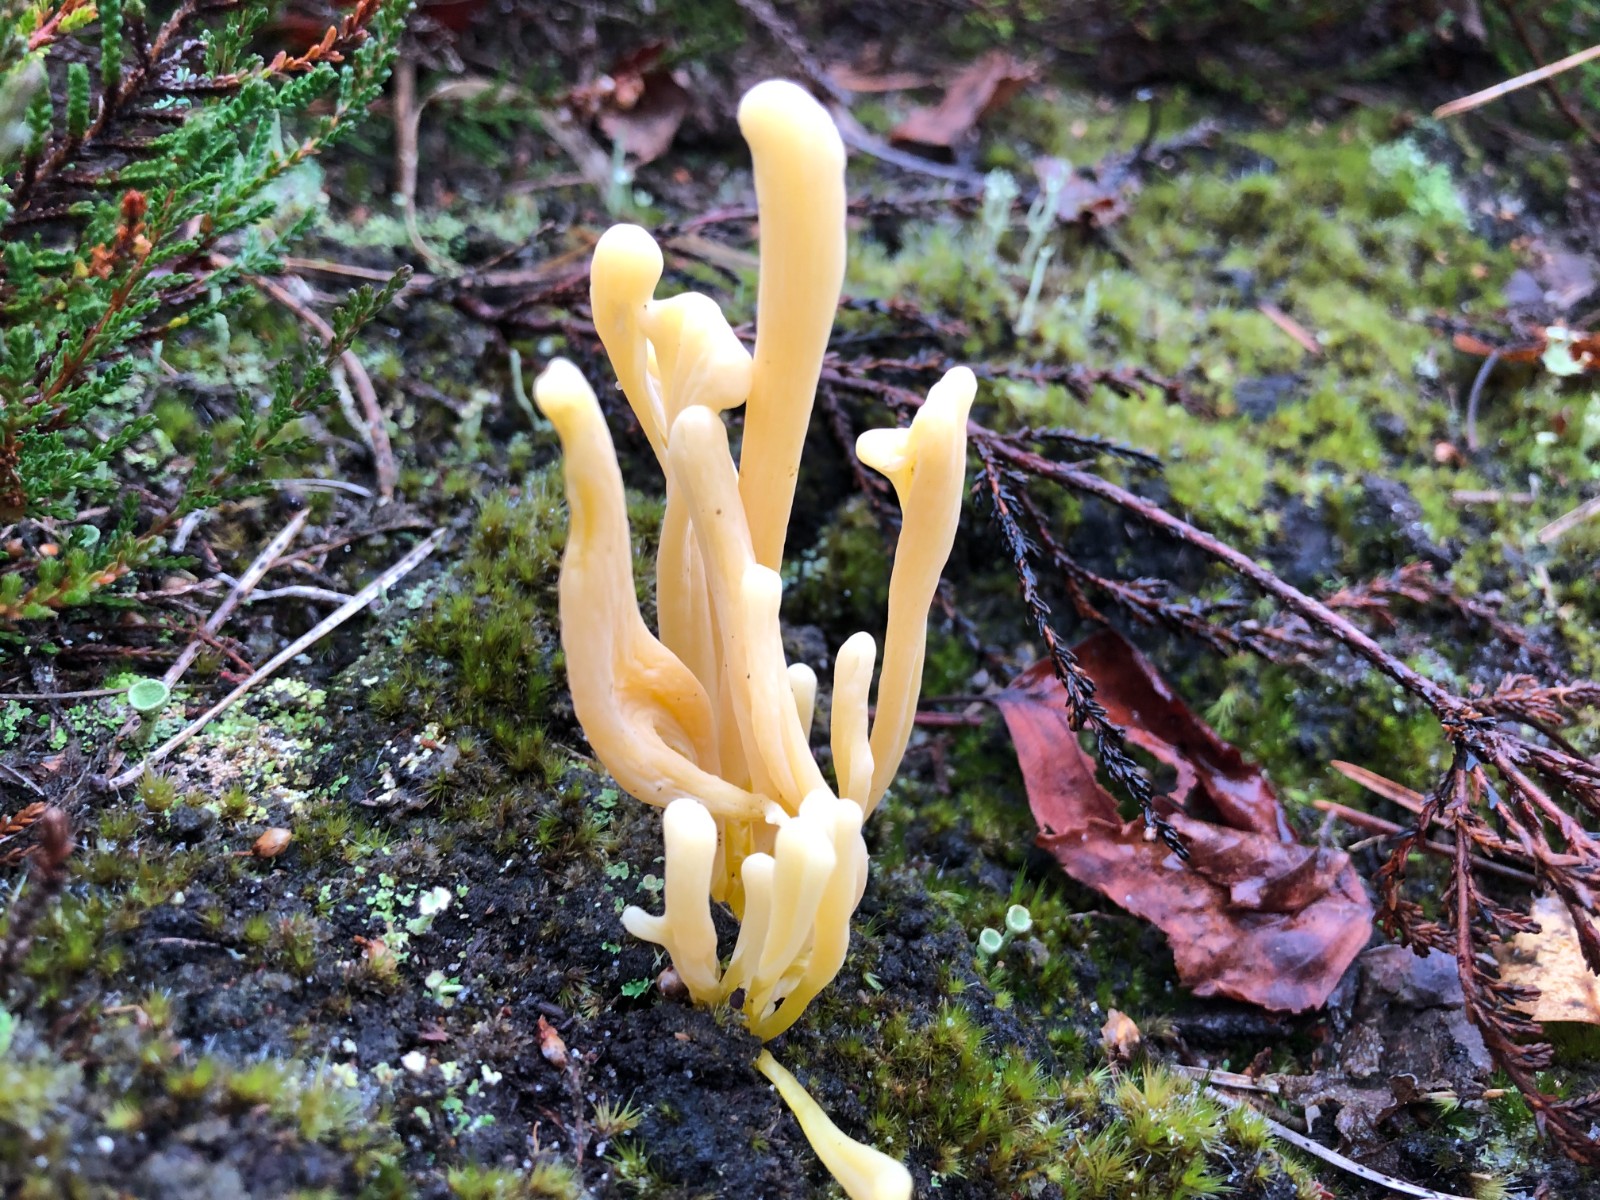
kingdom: Fungi
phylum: Basidiomycota
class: Agaricomycetes
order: Agaricales
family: Clavariaceae
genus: Clavaria
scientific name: Clavaria argillacea
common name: lerfarvet køllesvamp
